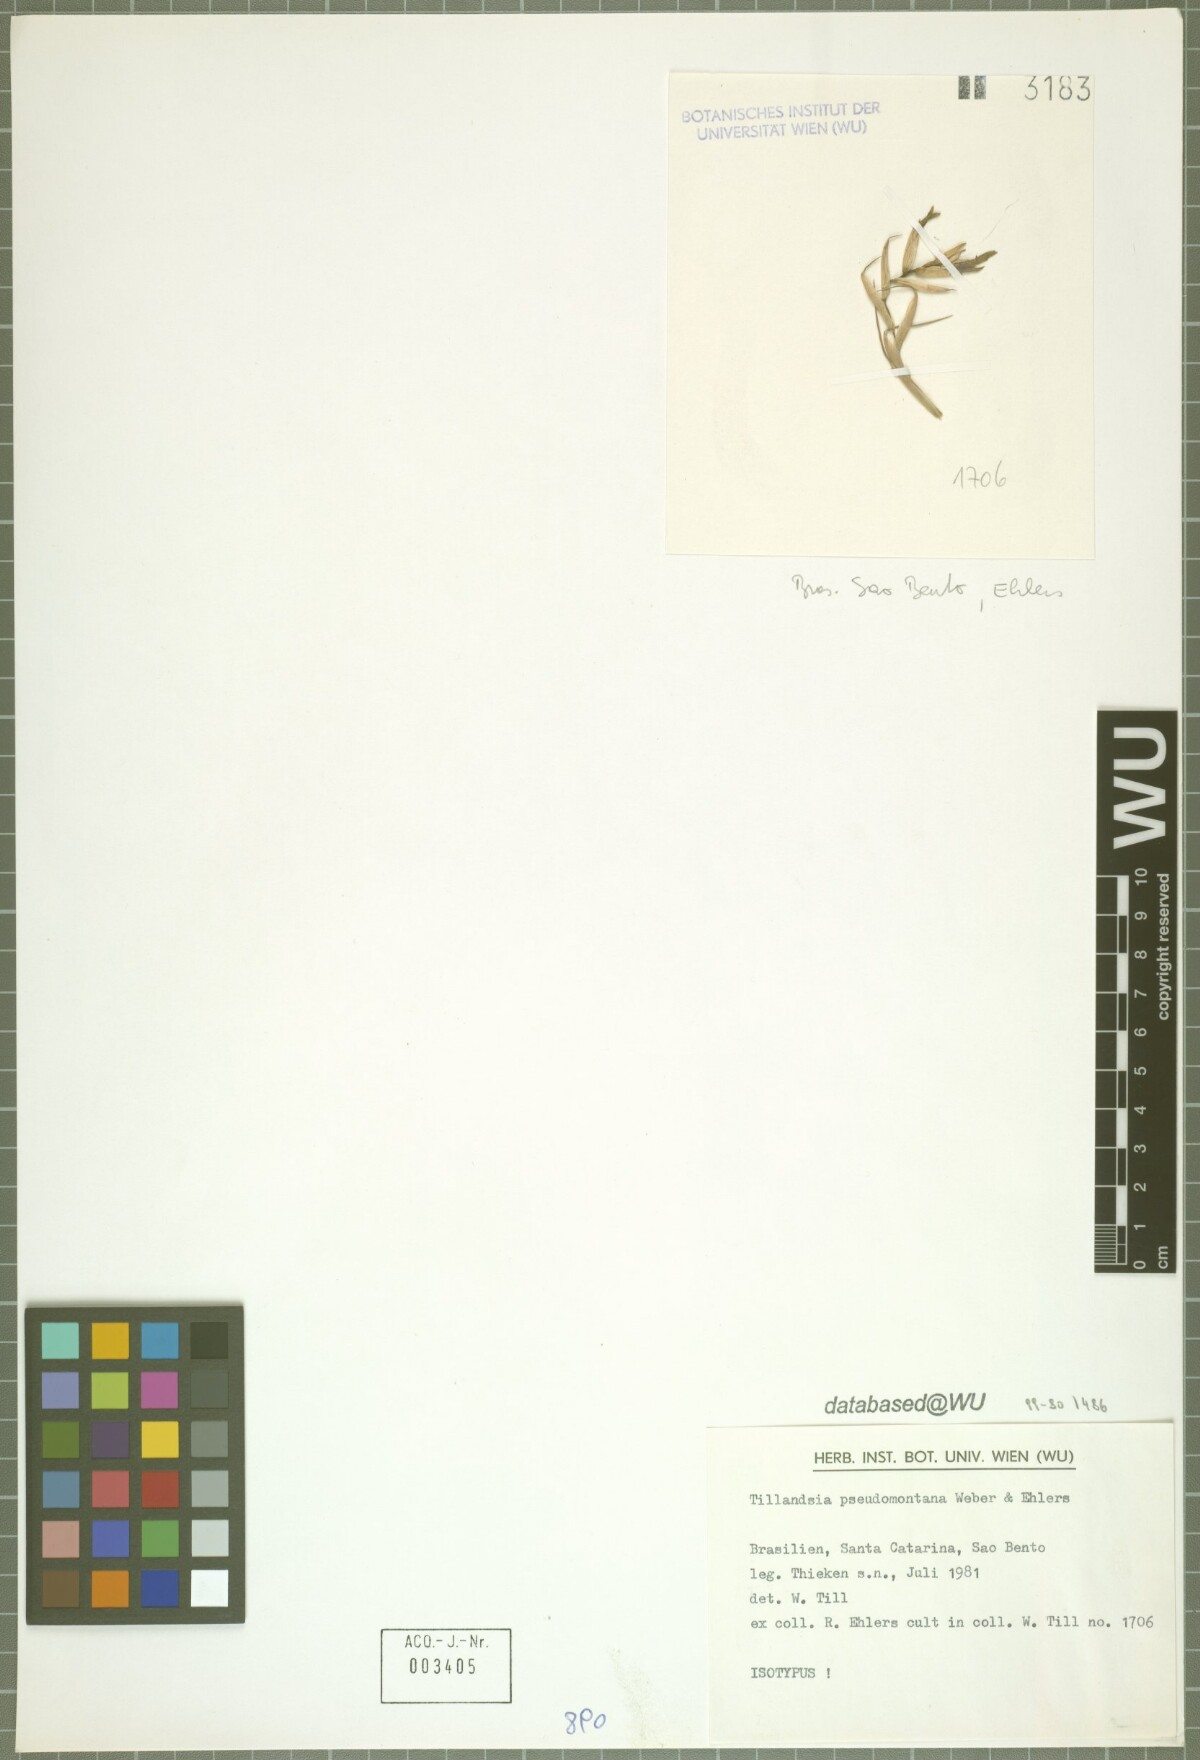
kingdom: Plantae
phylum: Tracheophyta
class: Liliopsida
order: Poales
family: Bromeliaceae
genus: Tillandsia
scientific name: Tillandsia pseudomontana
